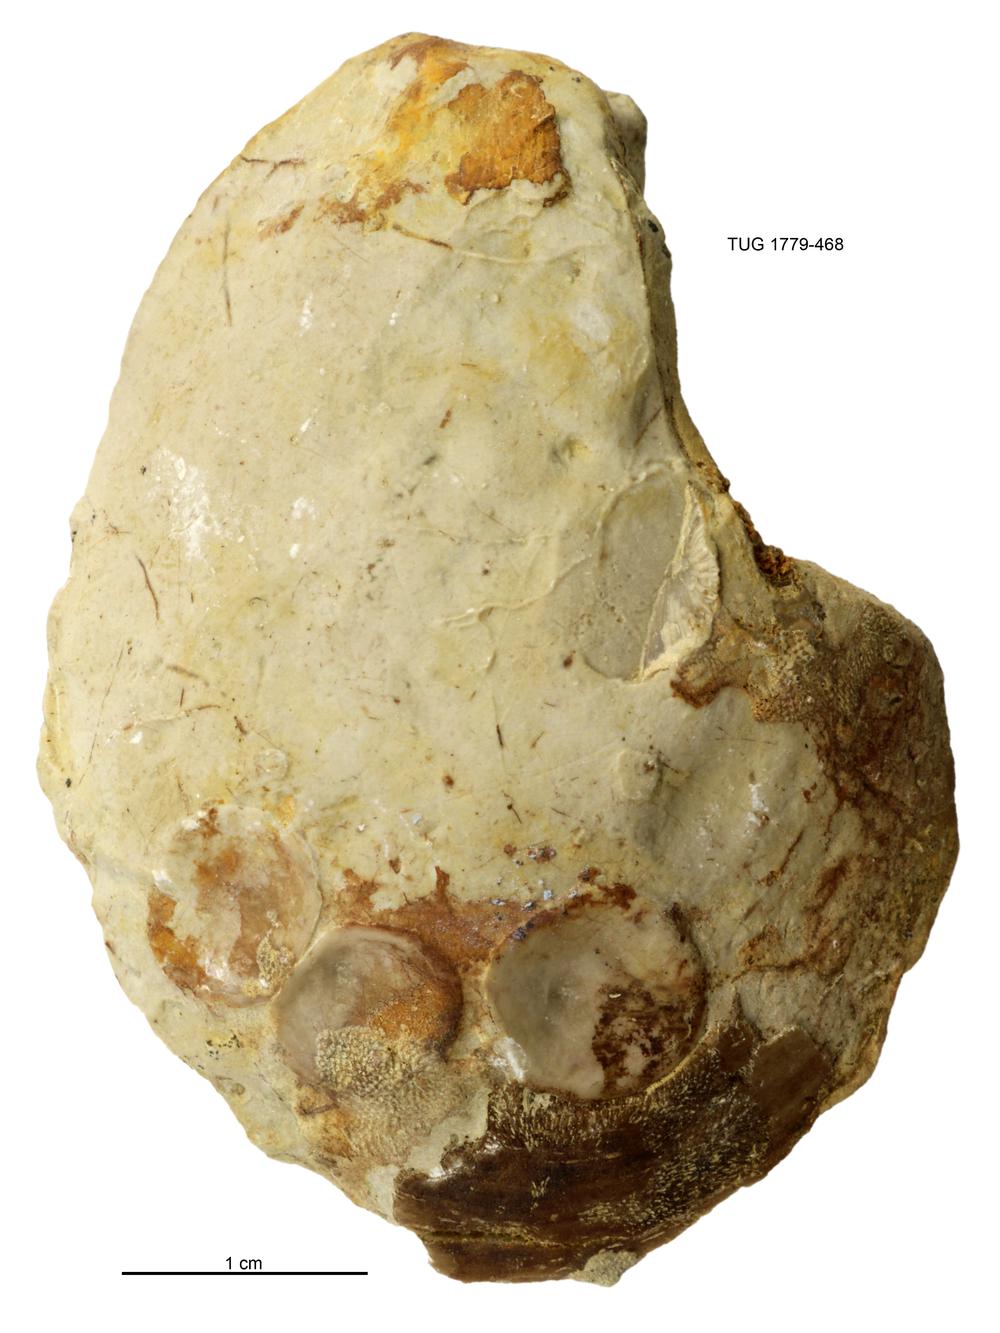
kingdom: Animalia
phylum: Mollusca
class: Bivalvia
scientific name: Bivalvia
